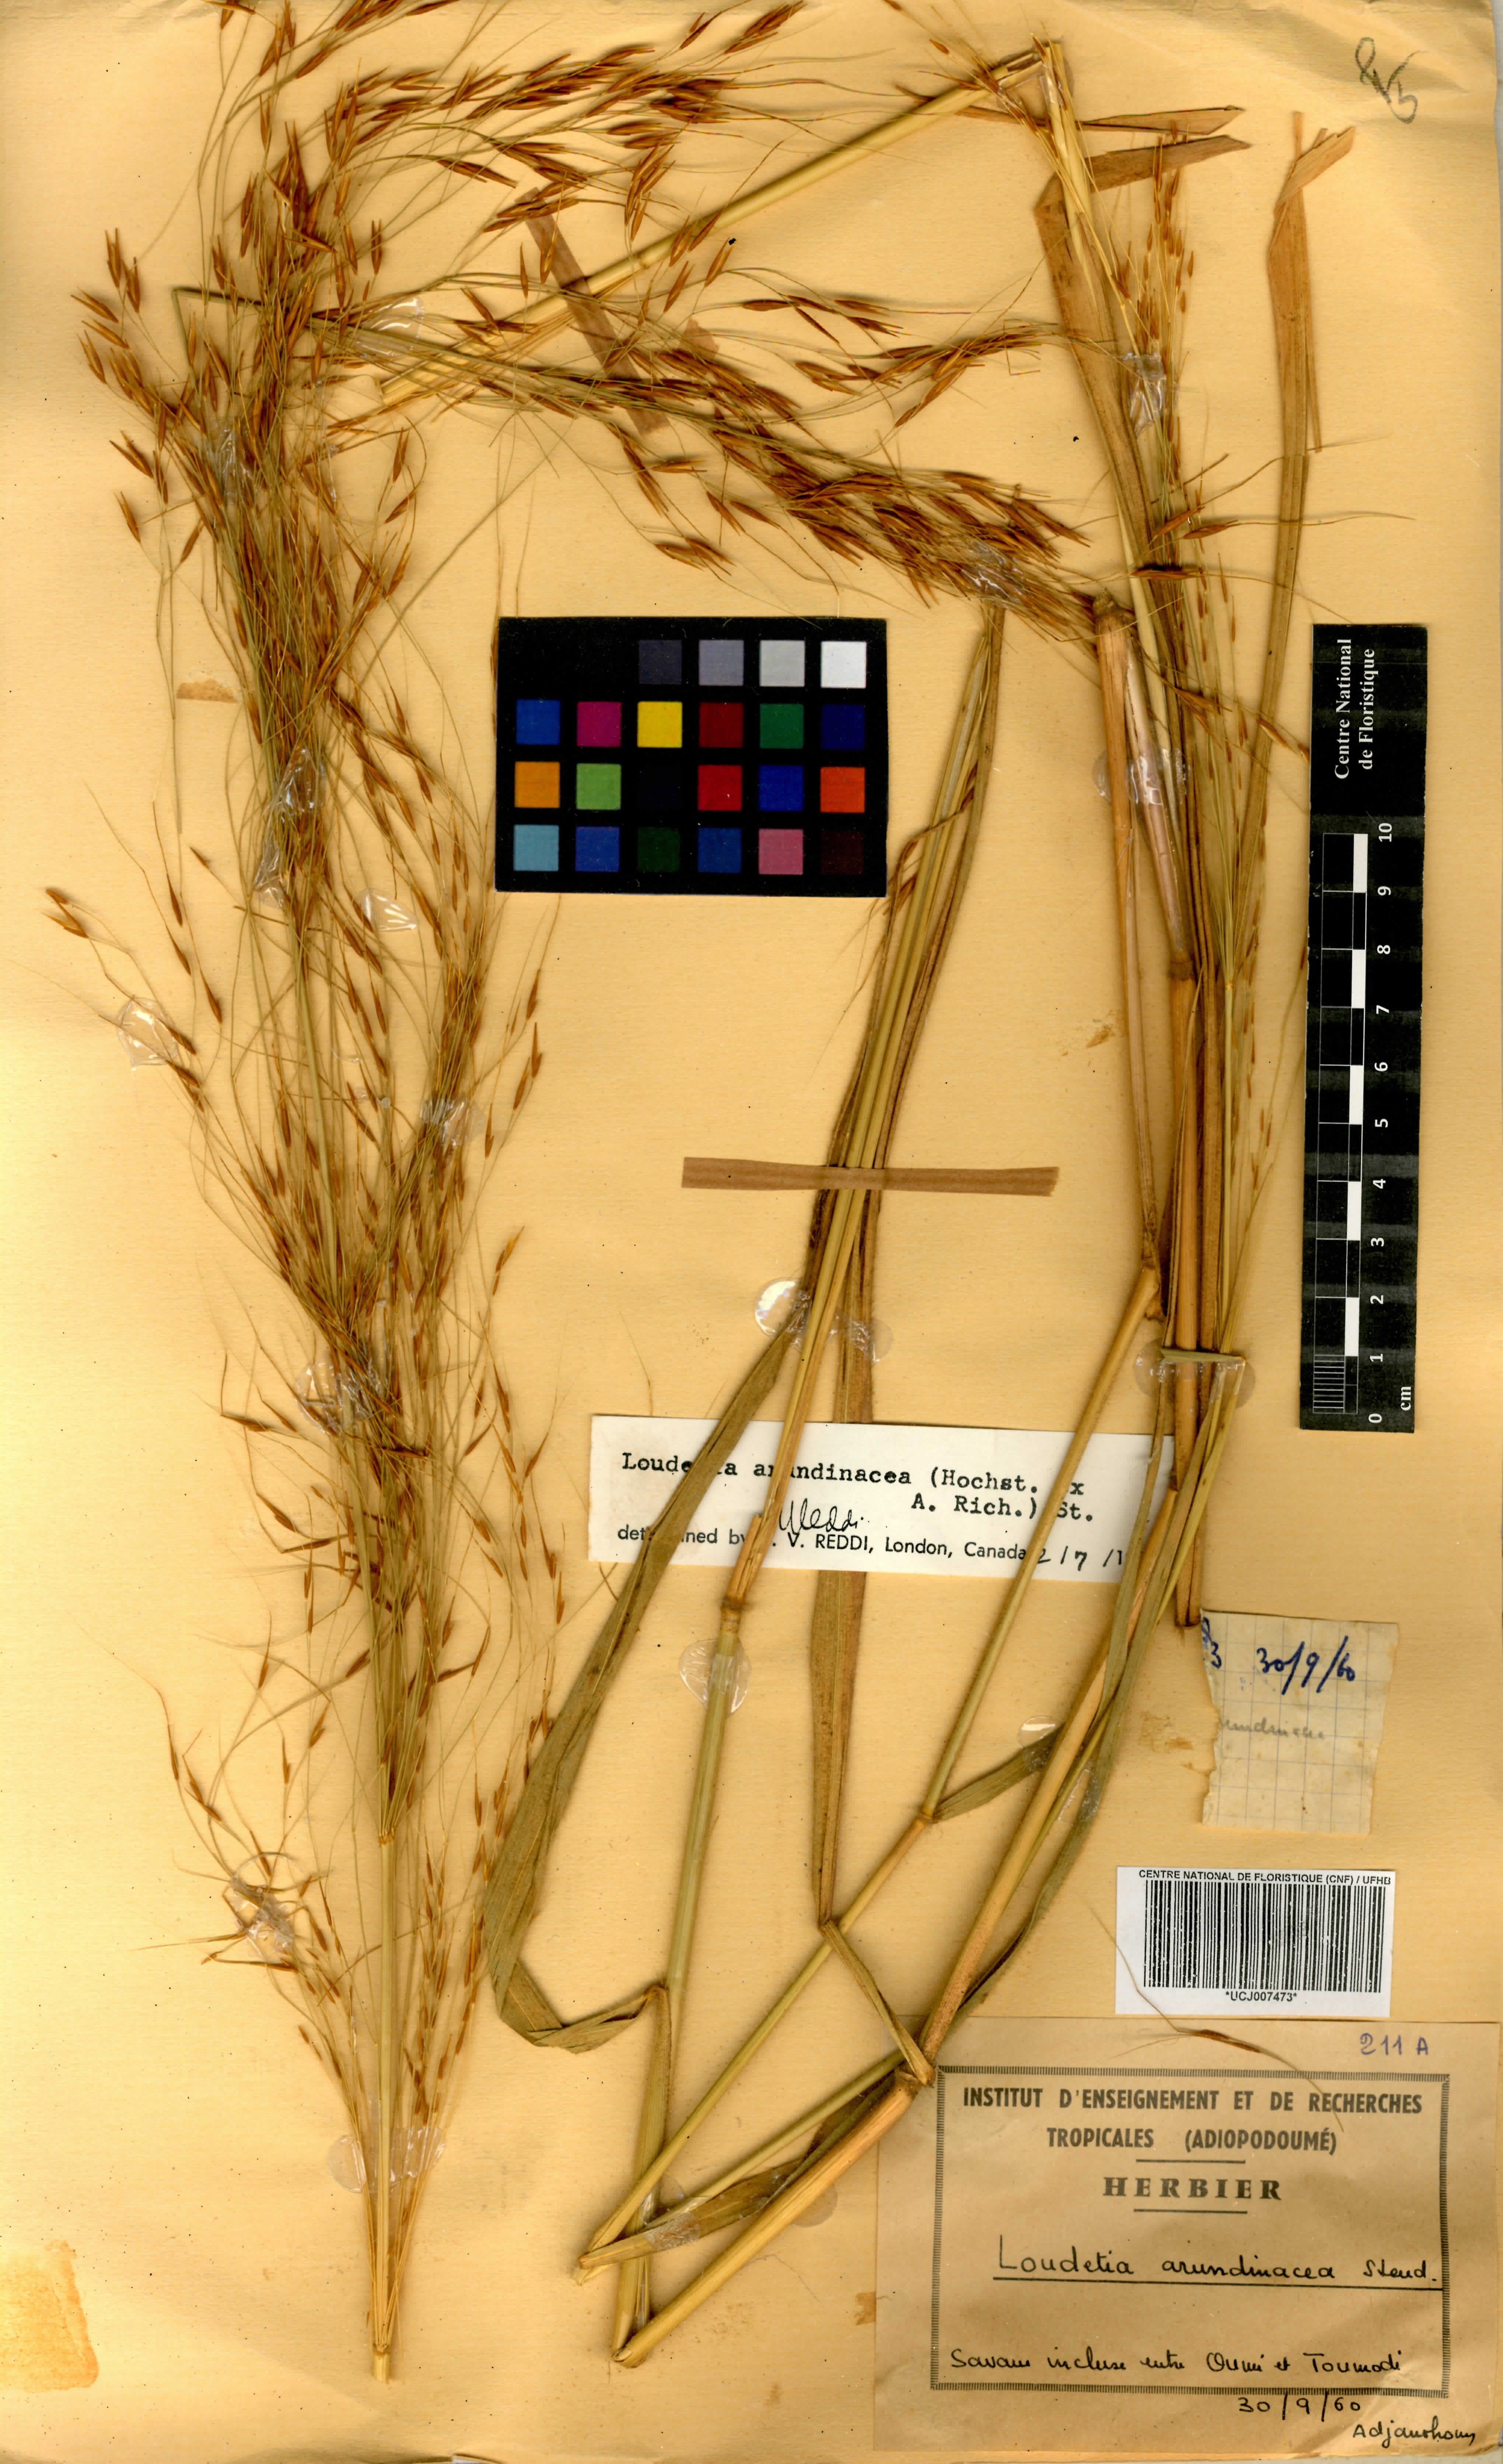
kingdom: Plantae
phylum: Tracheophyta
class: Liliopsida
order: Poales
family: Poaceae
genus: Loudetia
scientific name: Loudetia arundinacea
